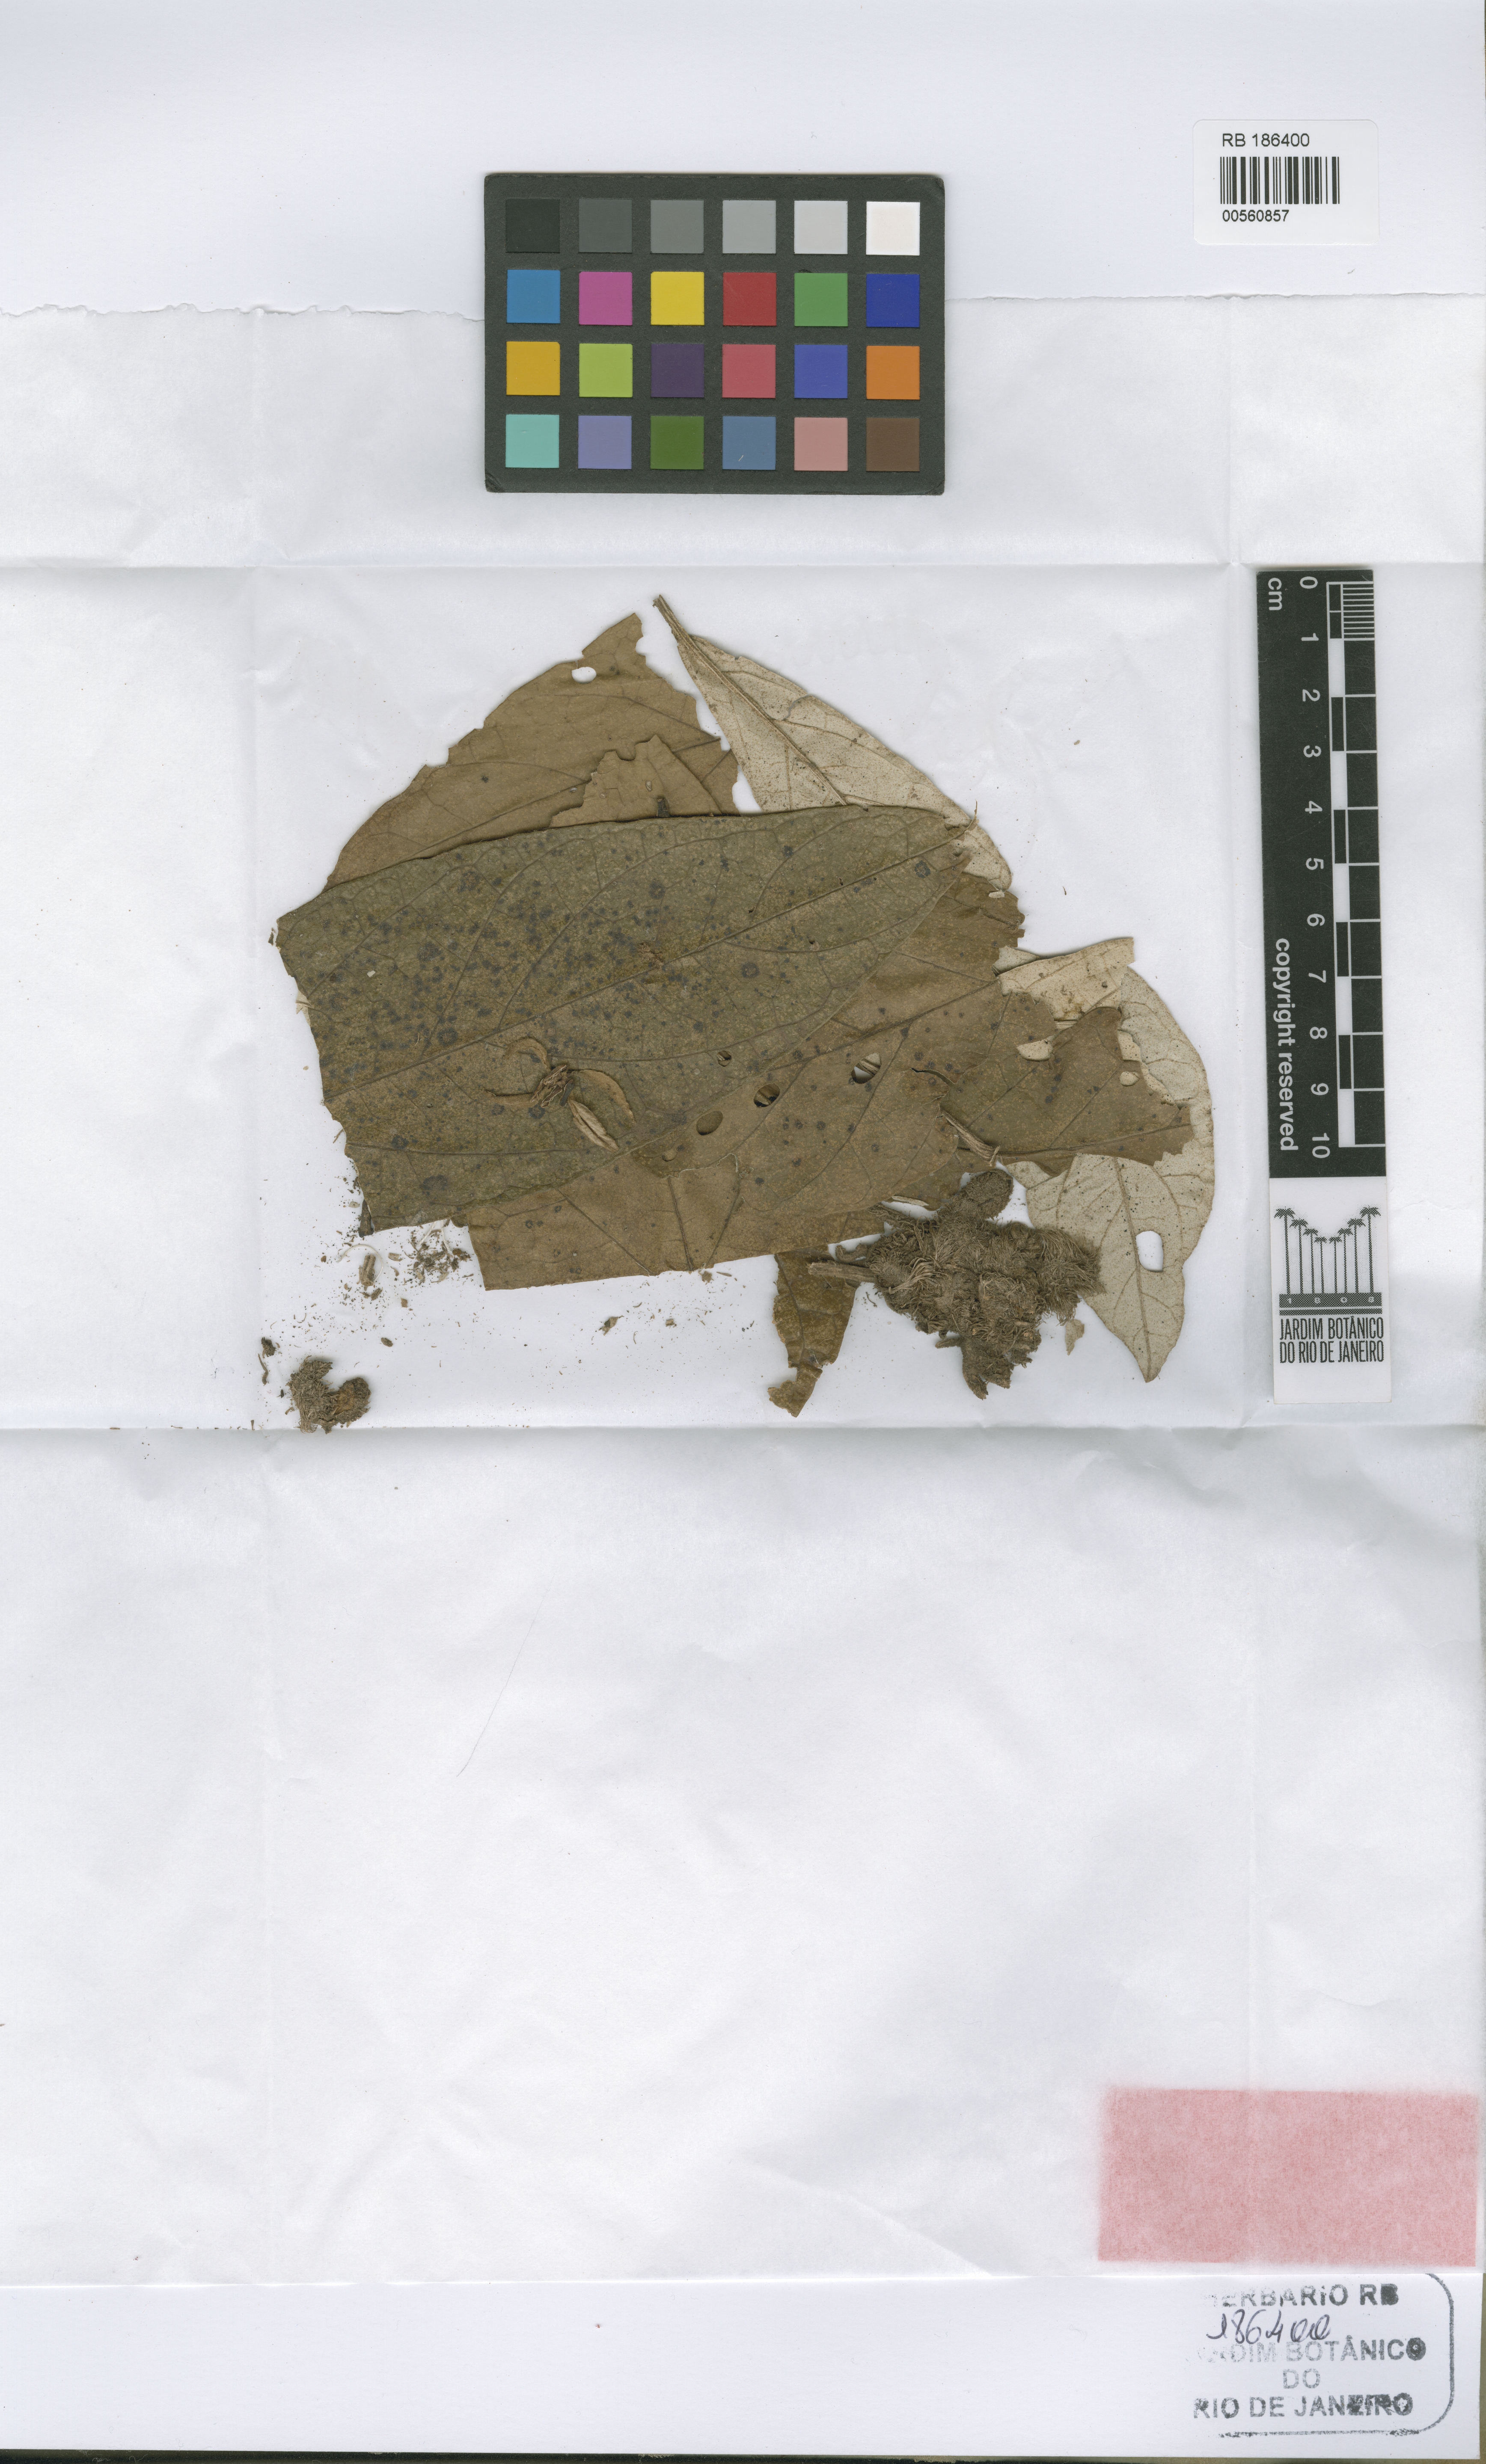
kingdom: Plantae
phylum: Tracheophyta
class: Magnoliopsida
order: Solanales
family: Solanaceae
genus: Solanum
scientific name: Solanum pereirae
